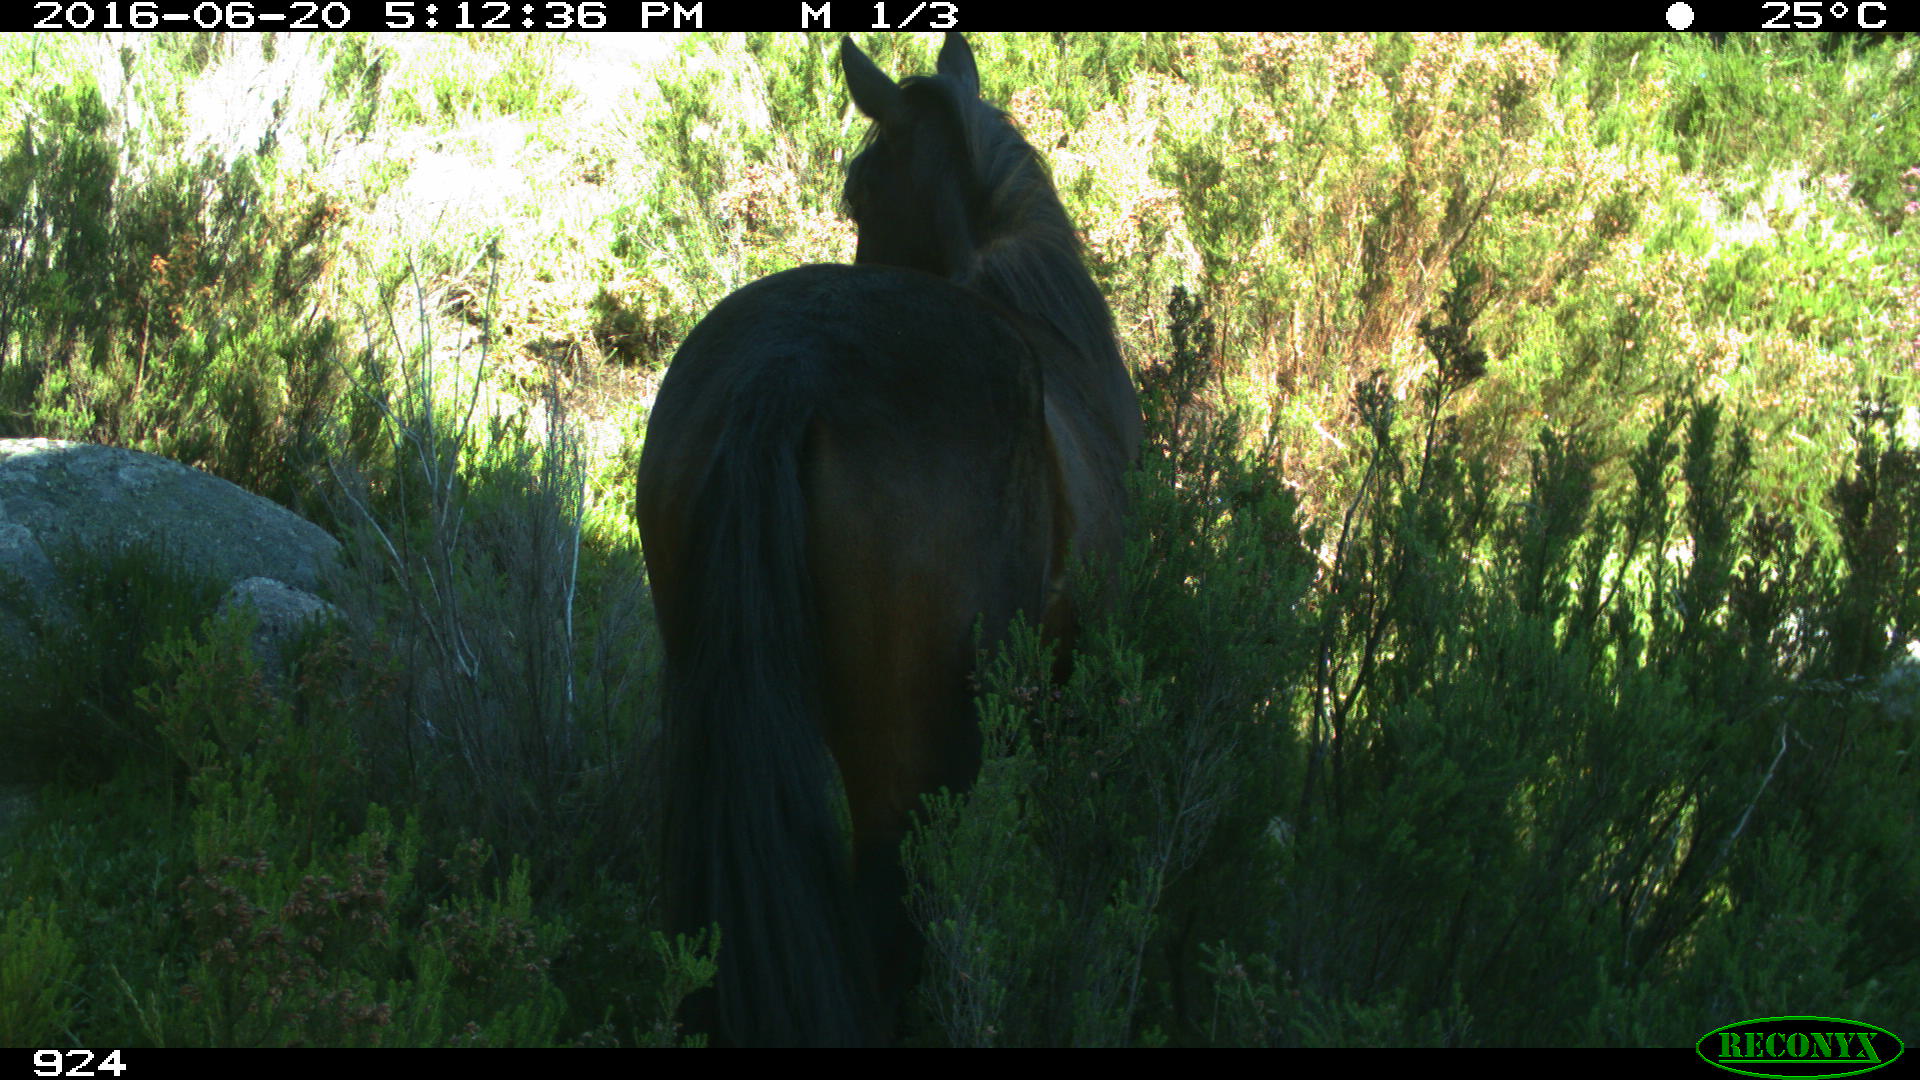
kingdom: Animalia
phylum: Chordata
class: Mammalia
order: Perissodactyla
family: Equidae
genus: Equus
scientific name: Equus caballus
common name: Horse
